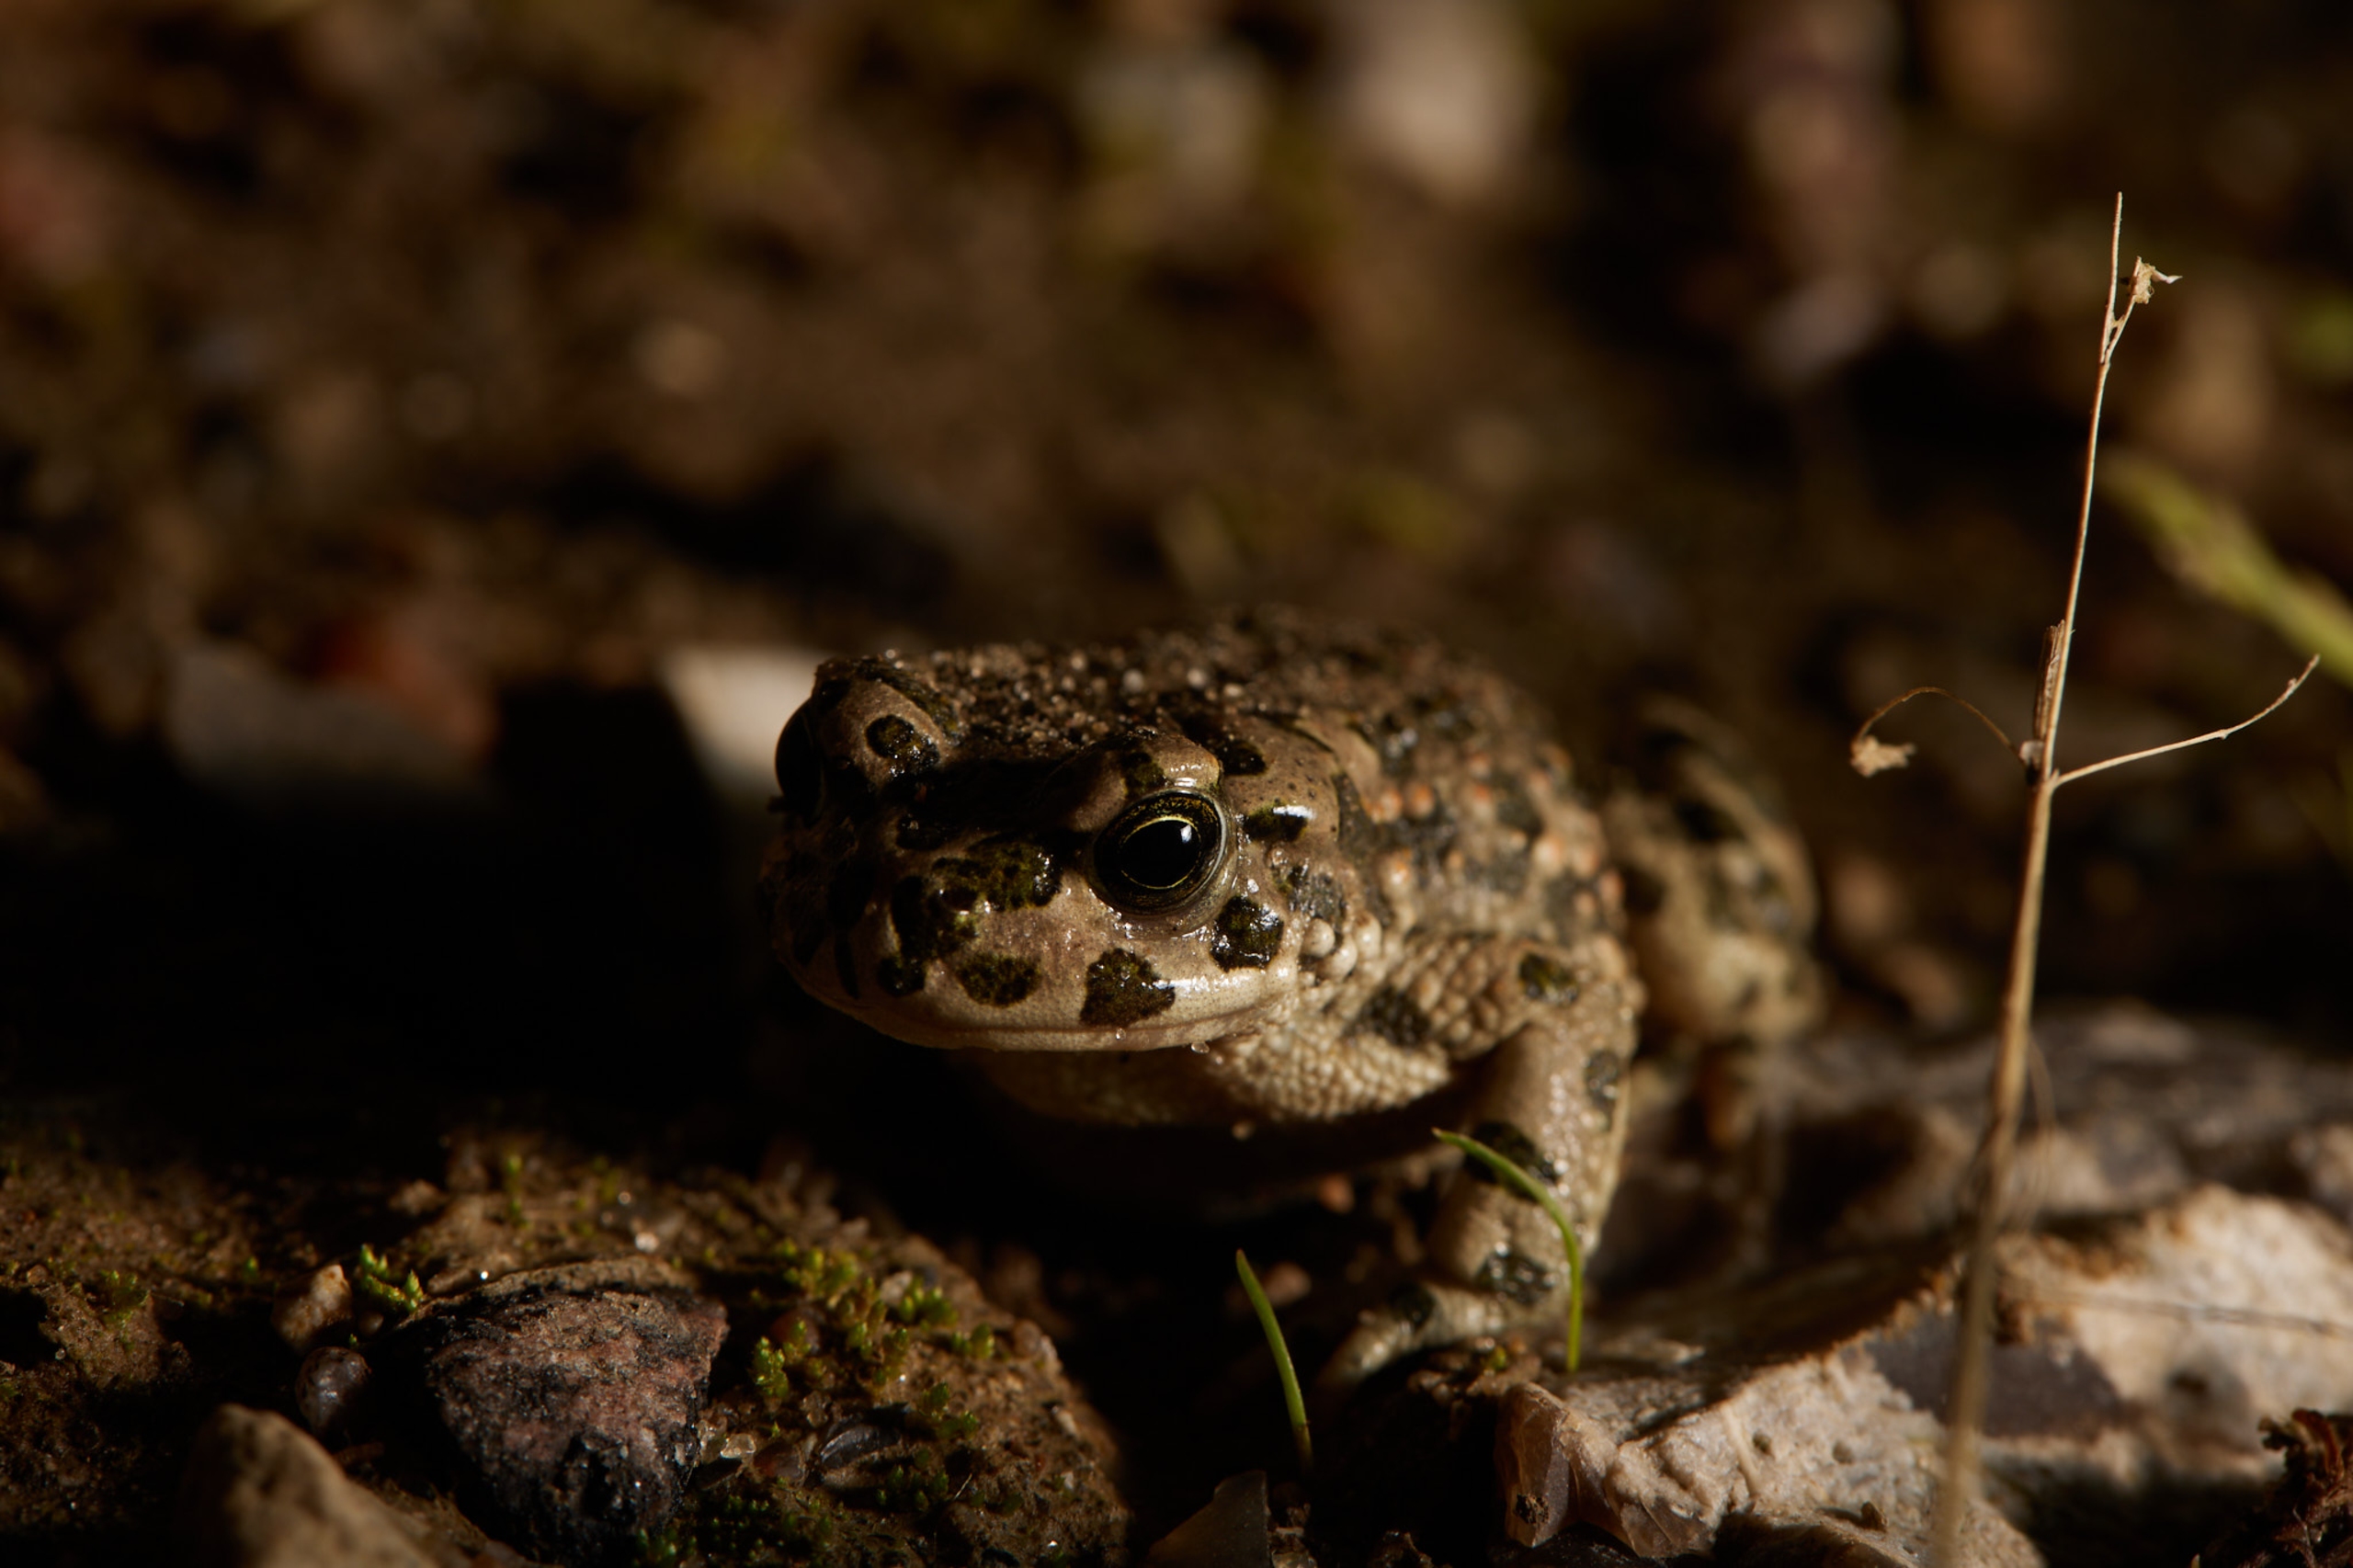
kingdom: Animalia
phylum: Chordata
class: Amphibia
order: Anura
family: Bufonidae
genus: Bufotes
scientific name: Bufotes viridis
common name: Grønbroget tudse
